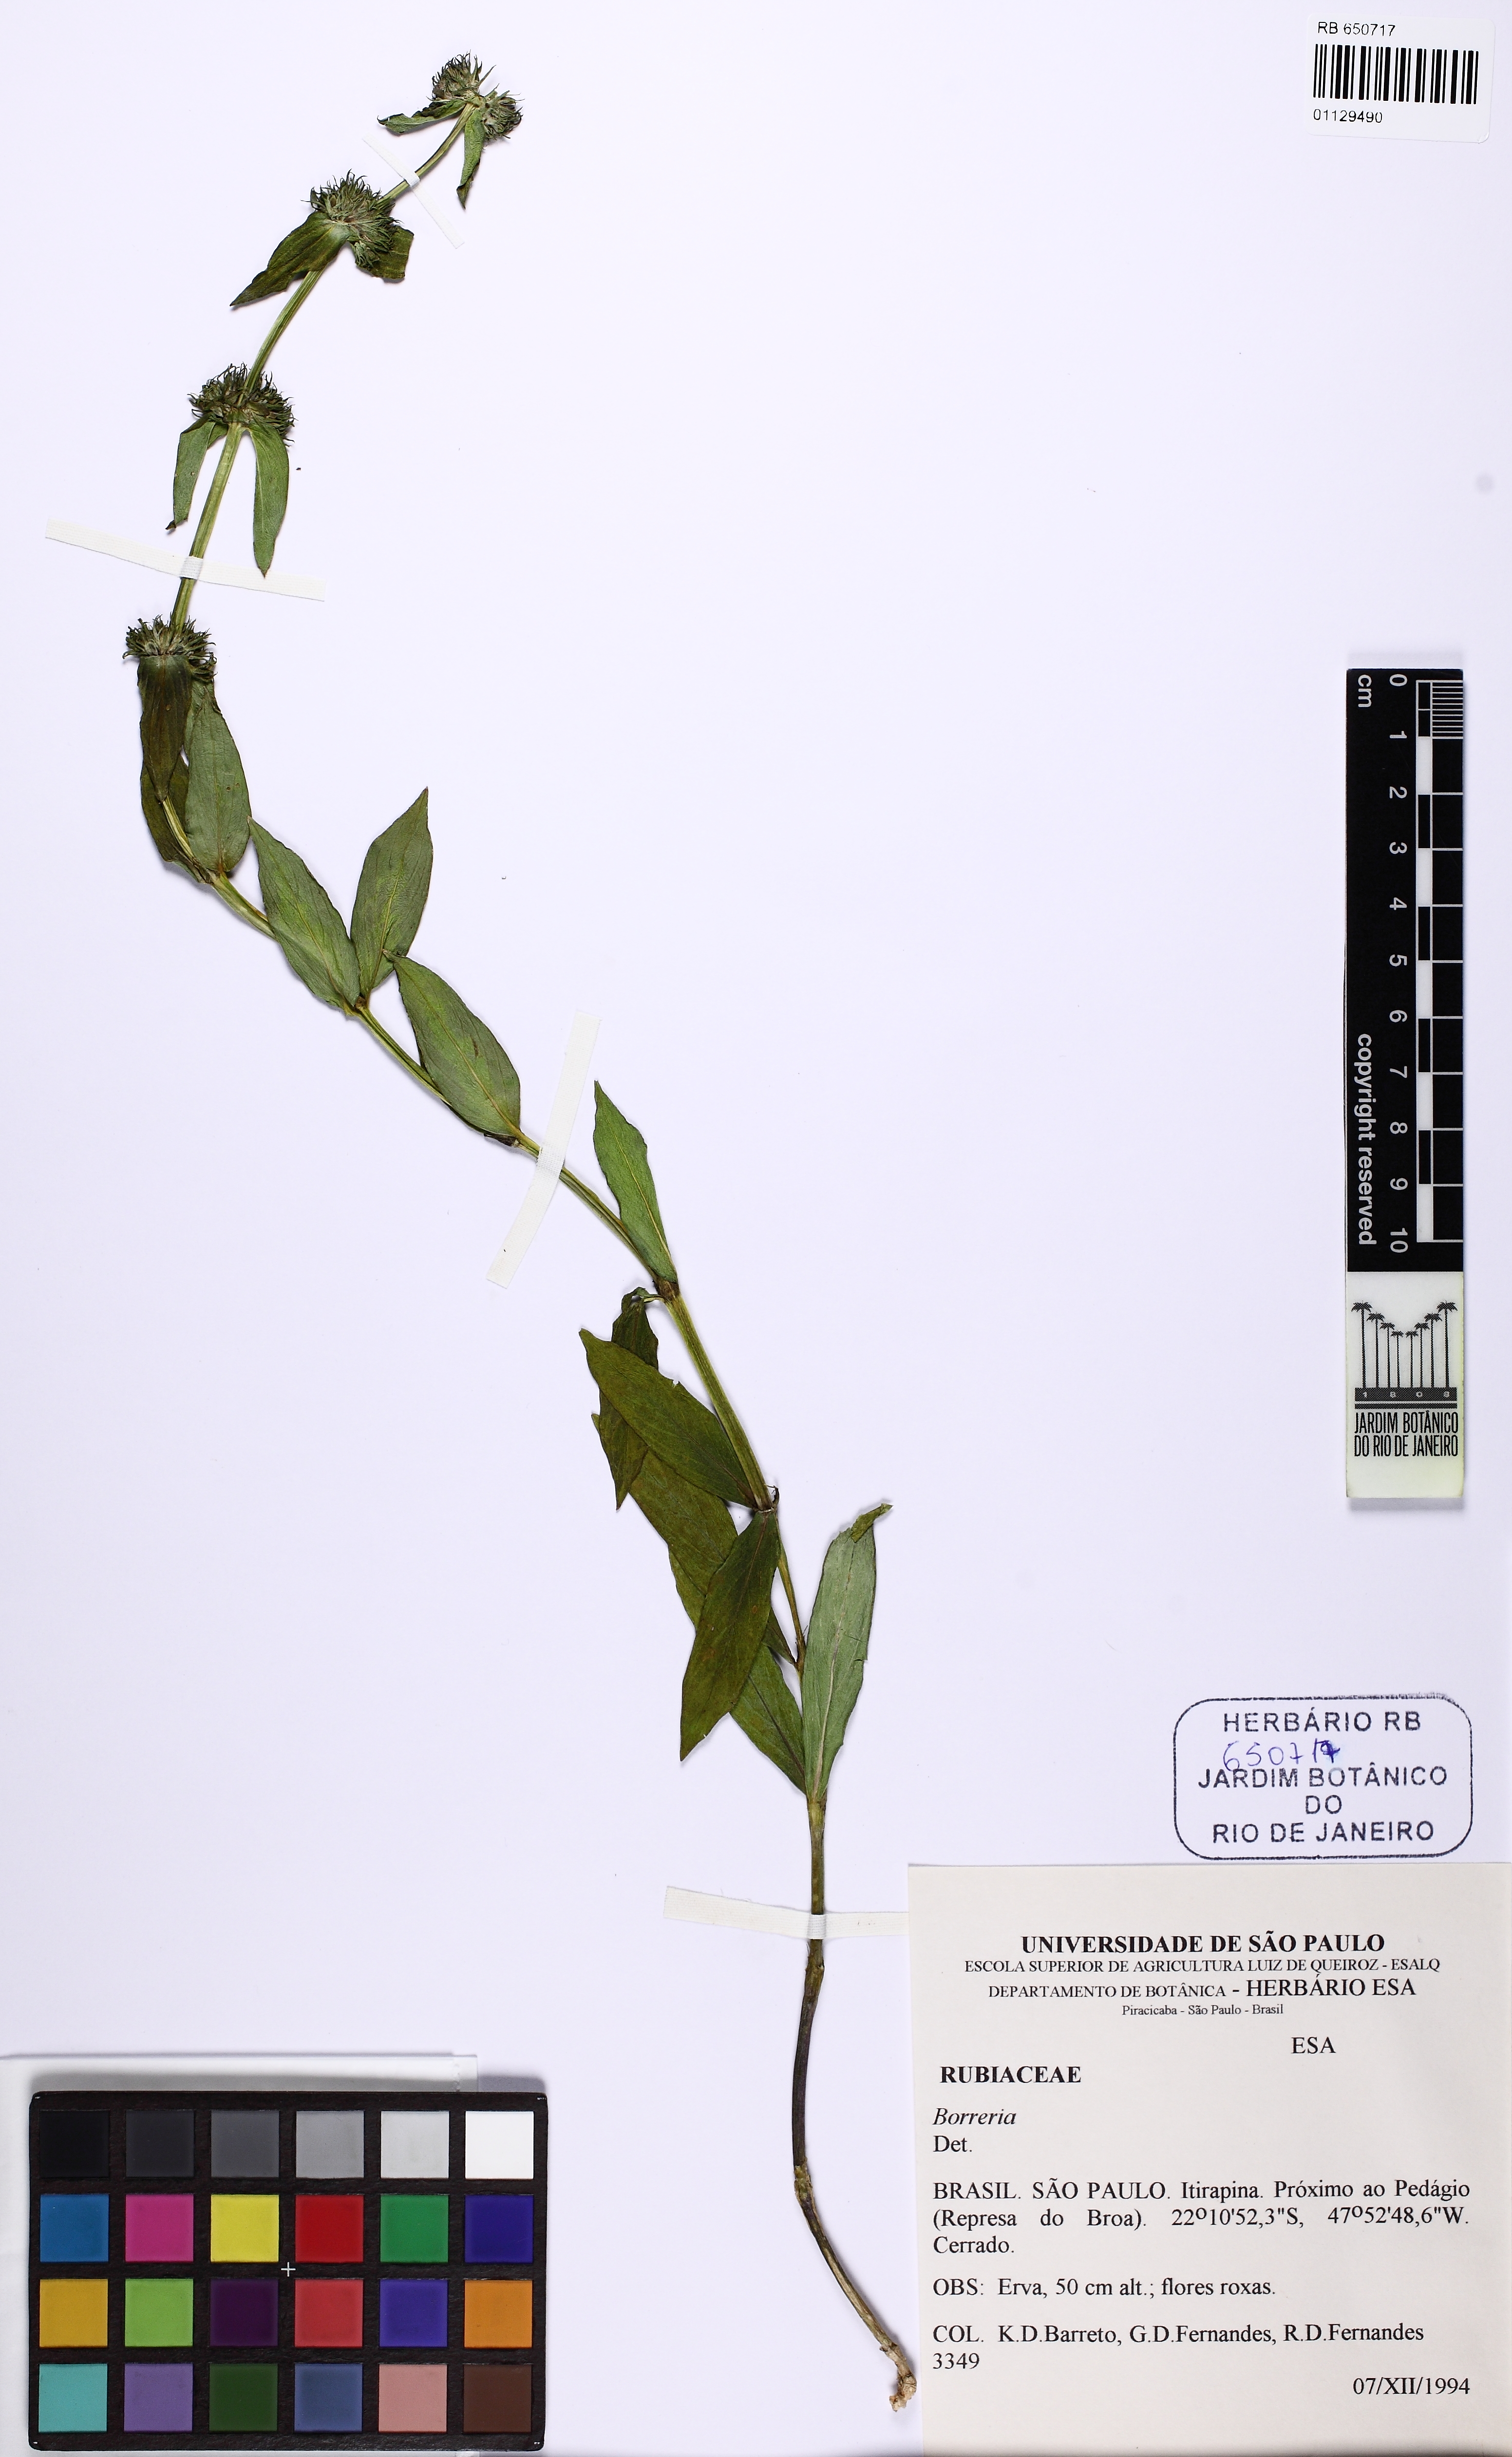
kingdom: Plantae
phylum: Tracheophyta
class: Magnoliopsida
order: Gentianales
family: Rubiaceae
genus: Spermacoce
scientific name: Spermacoce
